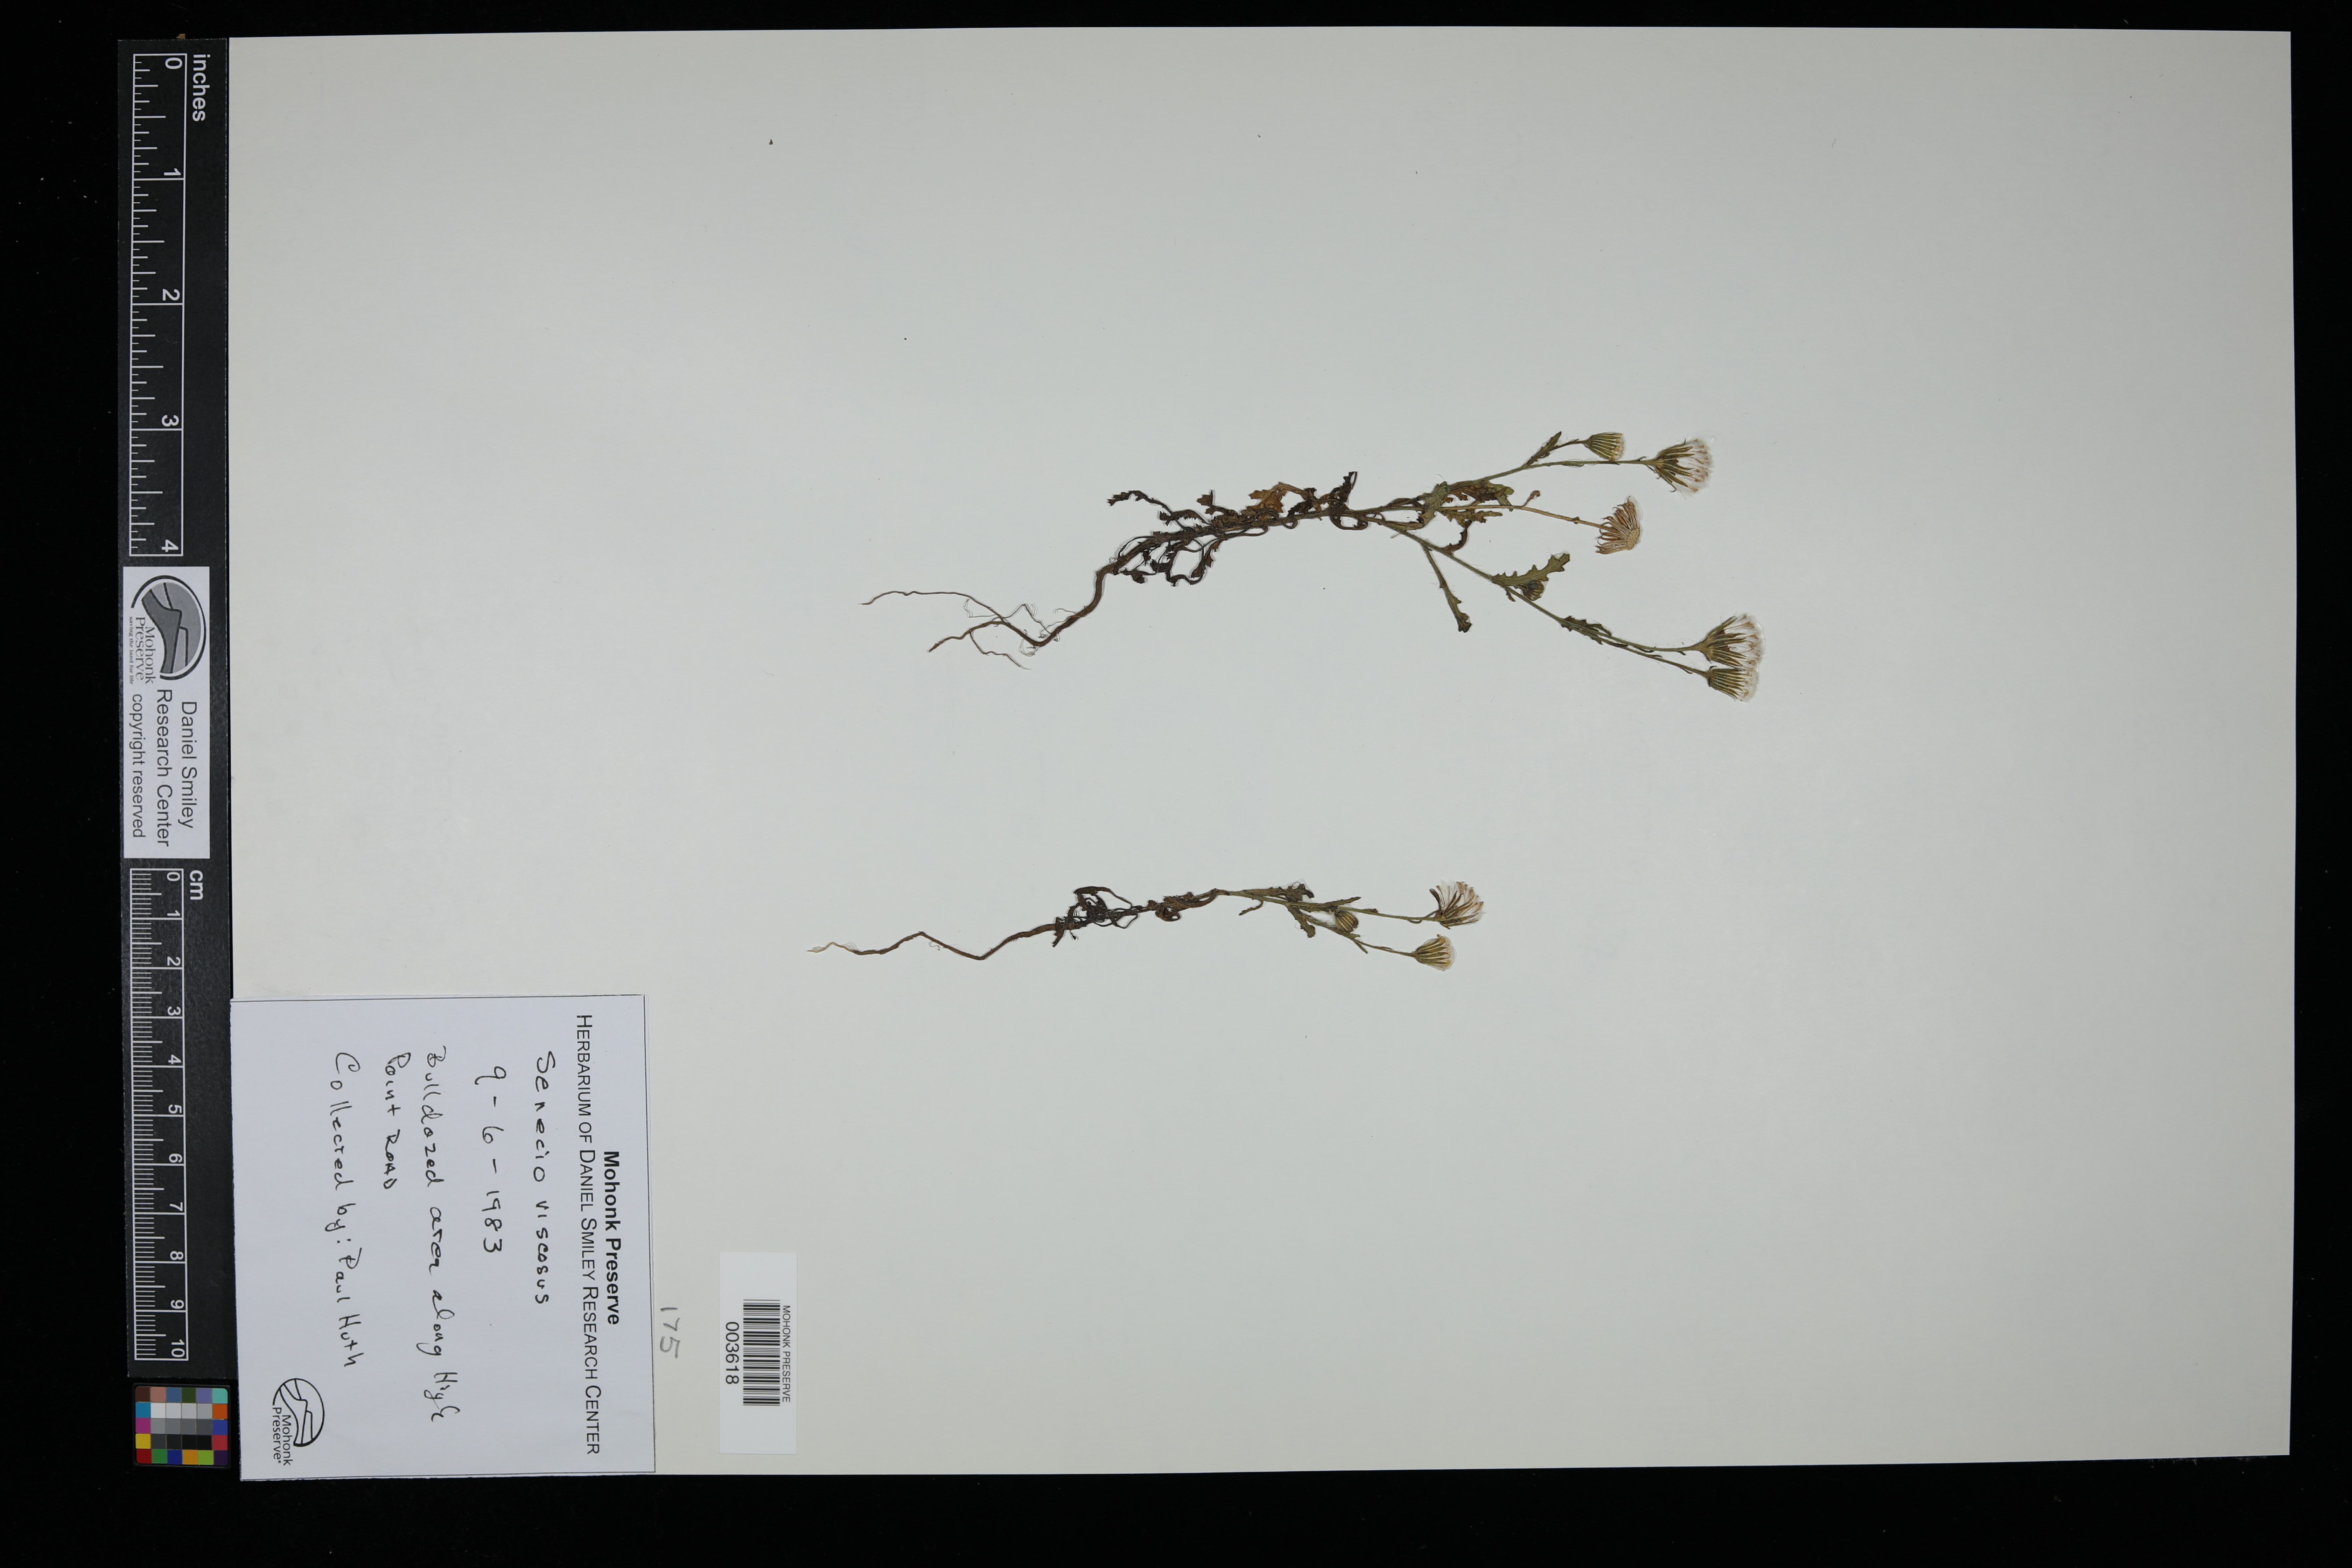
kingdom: Plantae
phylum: Tracheophyta
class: Magnoliopsida
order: Asterales
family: Asteraceae
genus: Senecio
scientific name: Senecio viscosus
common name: Sticky groundsel
